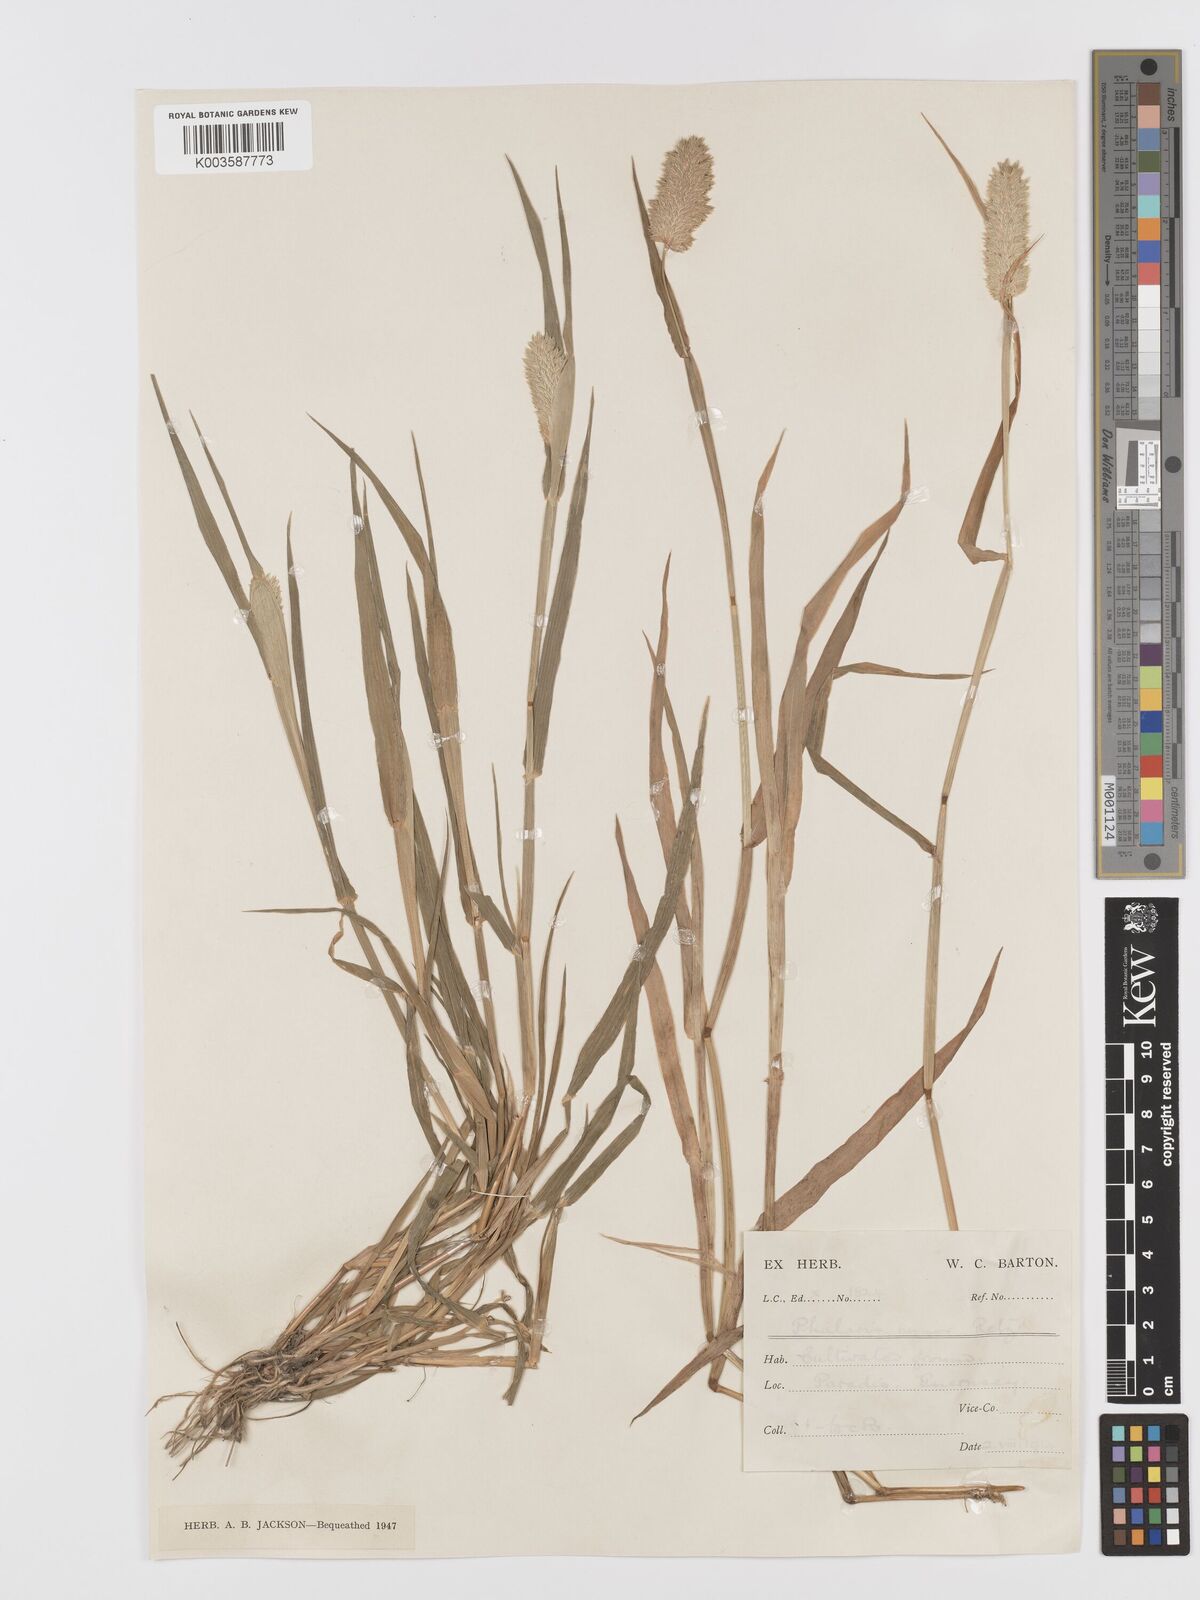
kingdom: Plantae
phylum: Tracheophyta
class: Liliopsida
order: Poales
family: Poaceae
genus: Phalaris
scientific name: Phalaris minor
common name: Littleseed canarygrass
